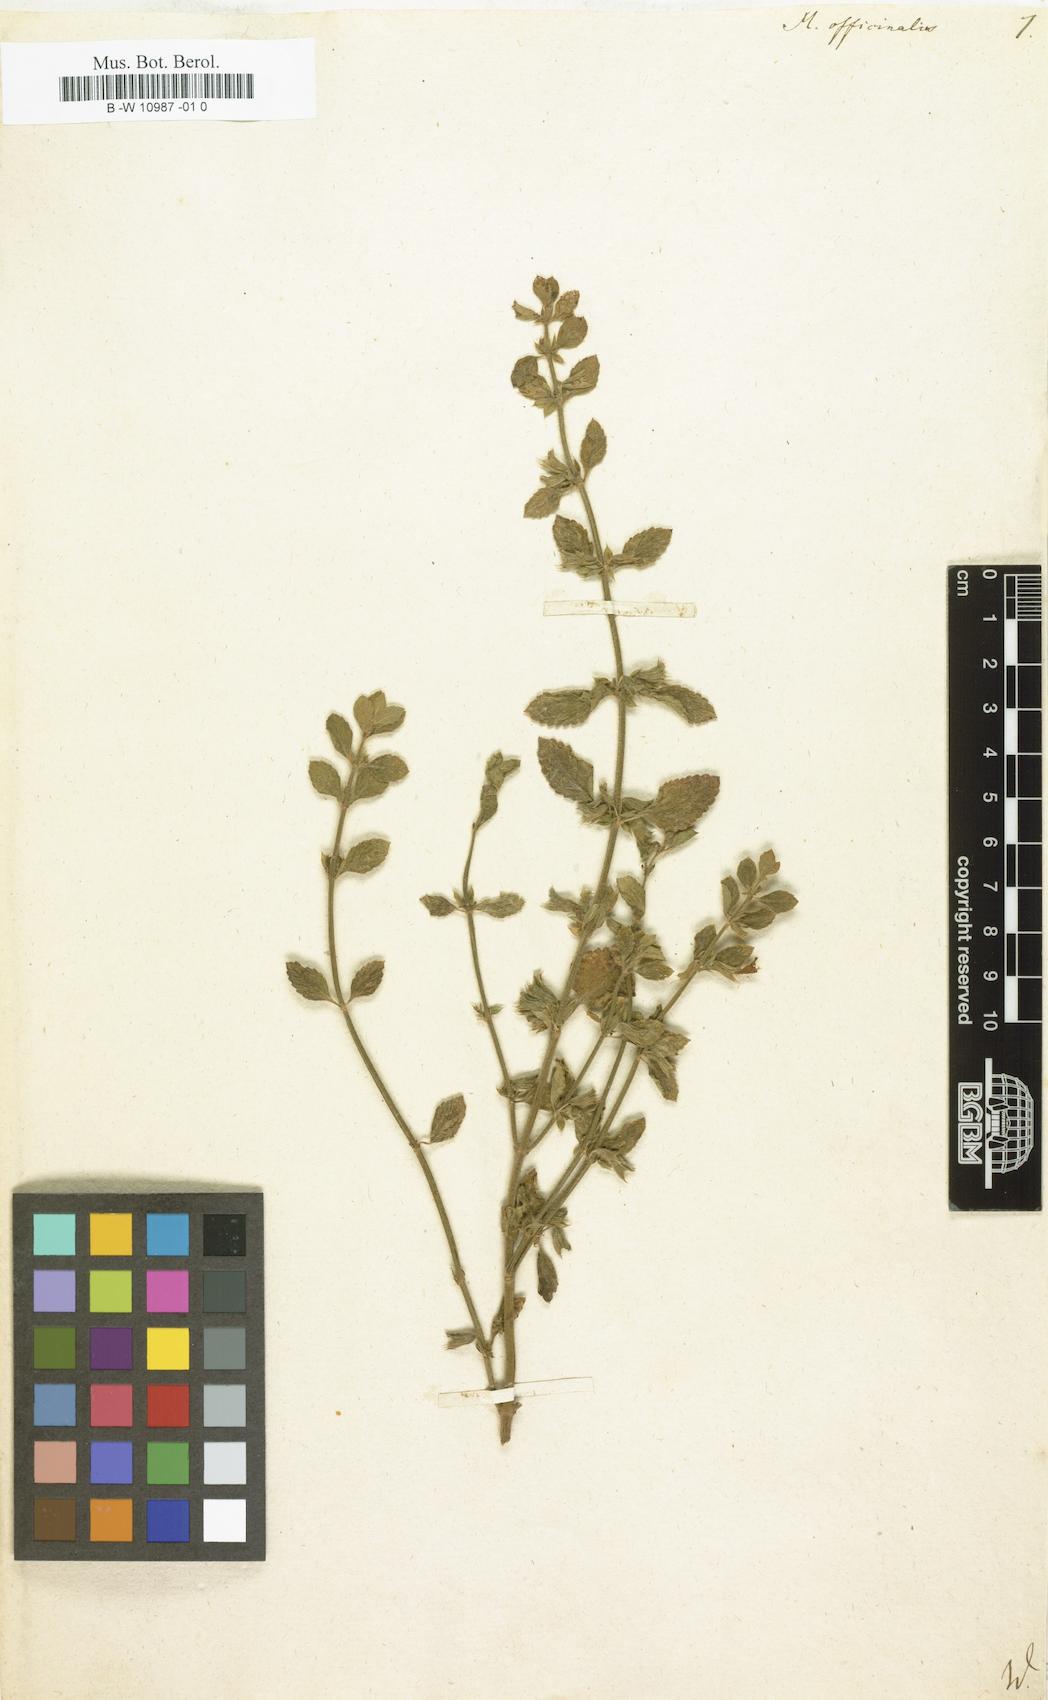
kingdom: Plantae
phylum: Tracheophyta
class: Magnoliopsida
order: Lamiales
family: Lamiaceae
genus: Melissa
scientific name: Melissa officinalis
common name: Balm
